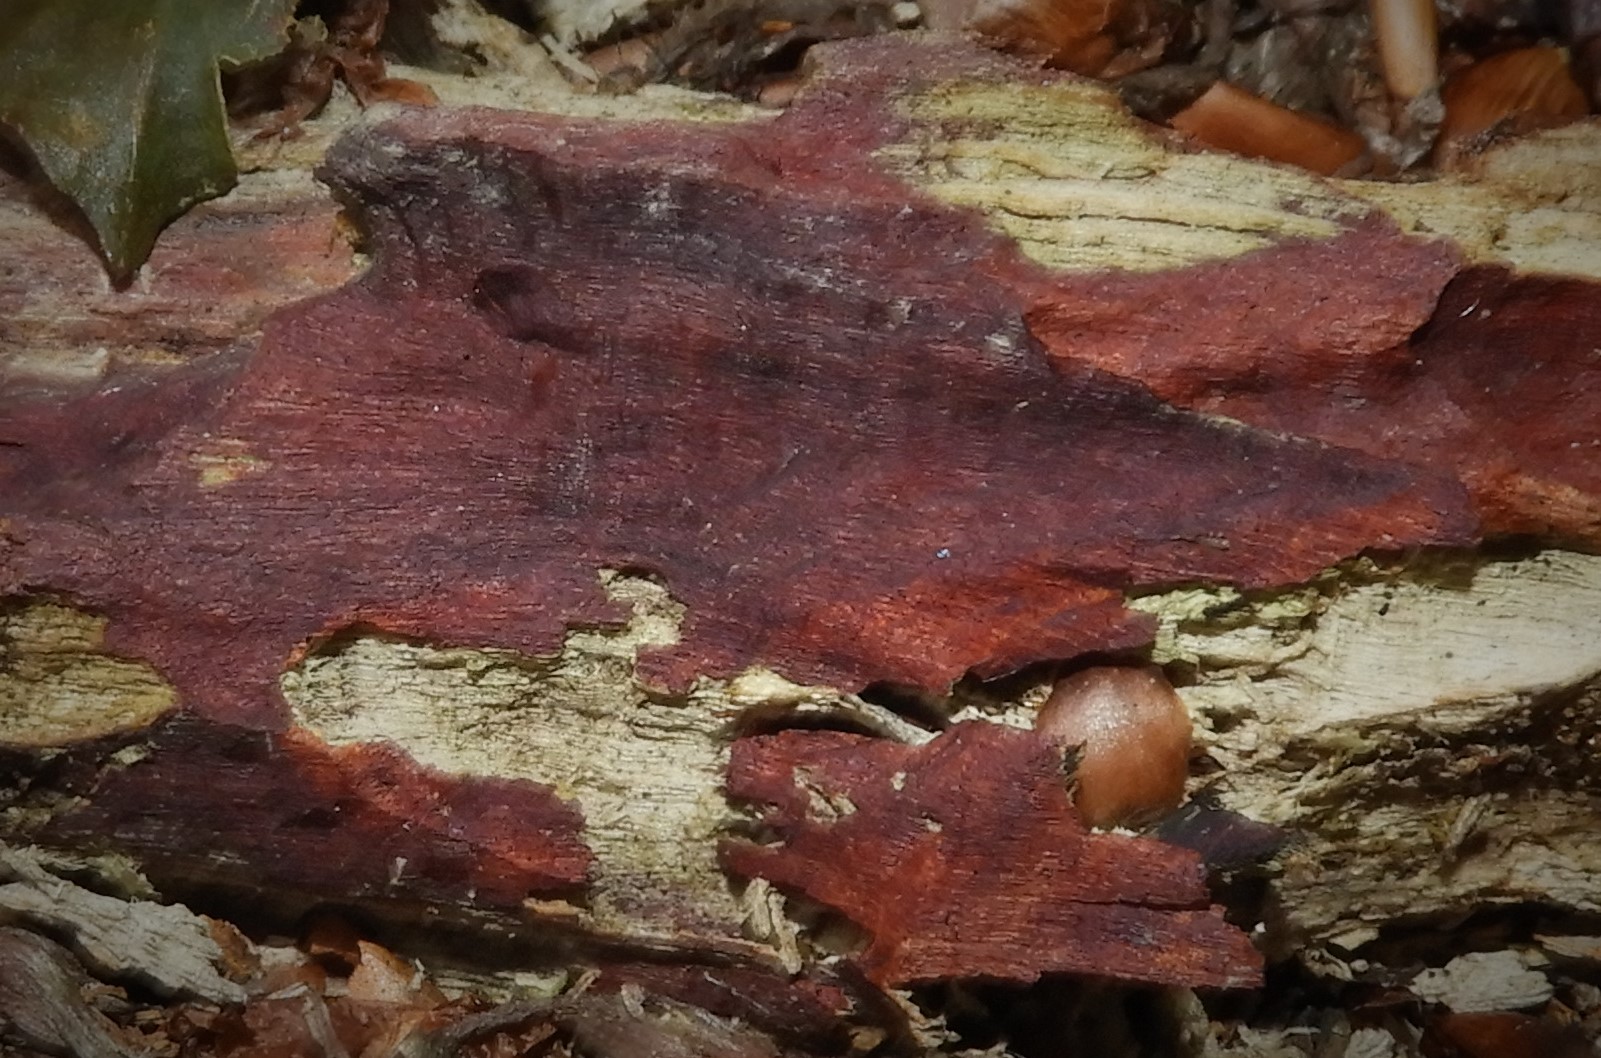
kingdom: Fungi
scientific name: Fungi
